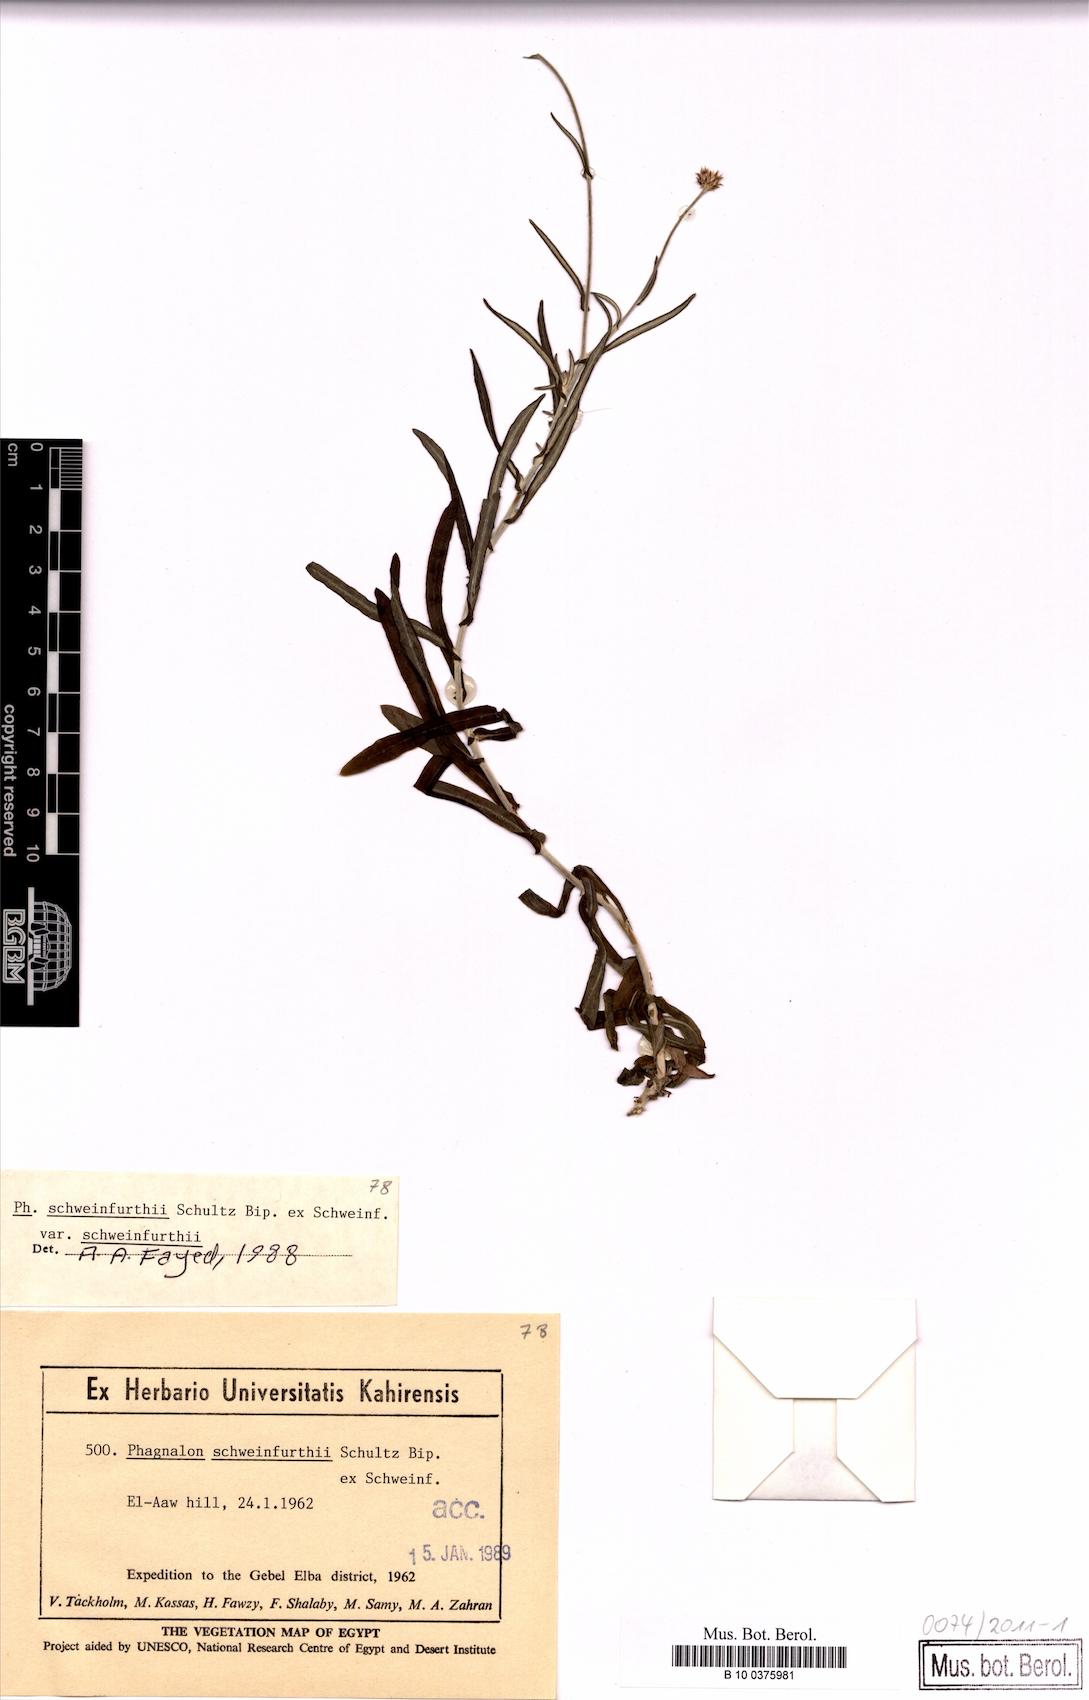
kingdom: Plantae
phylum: Tracheophyta
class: Magnoliopsida
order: Asterales
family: Asteraceae
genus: Phagnalon
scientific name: Phagnalon schweinfurthii
